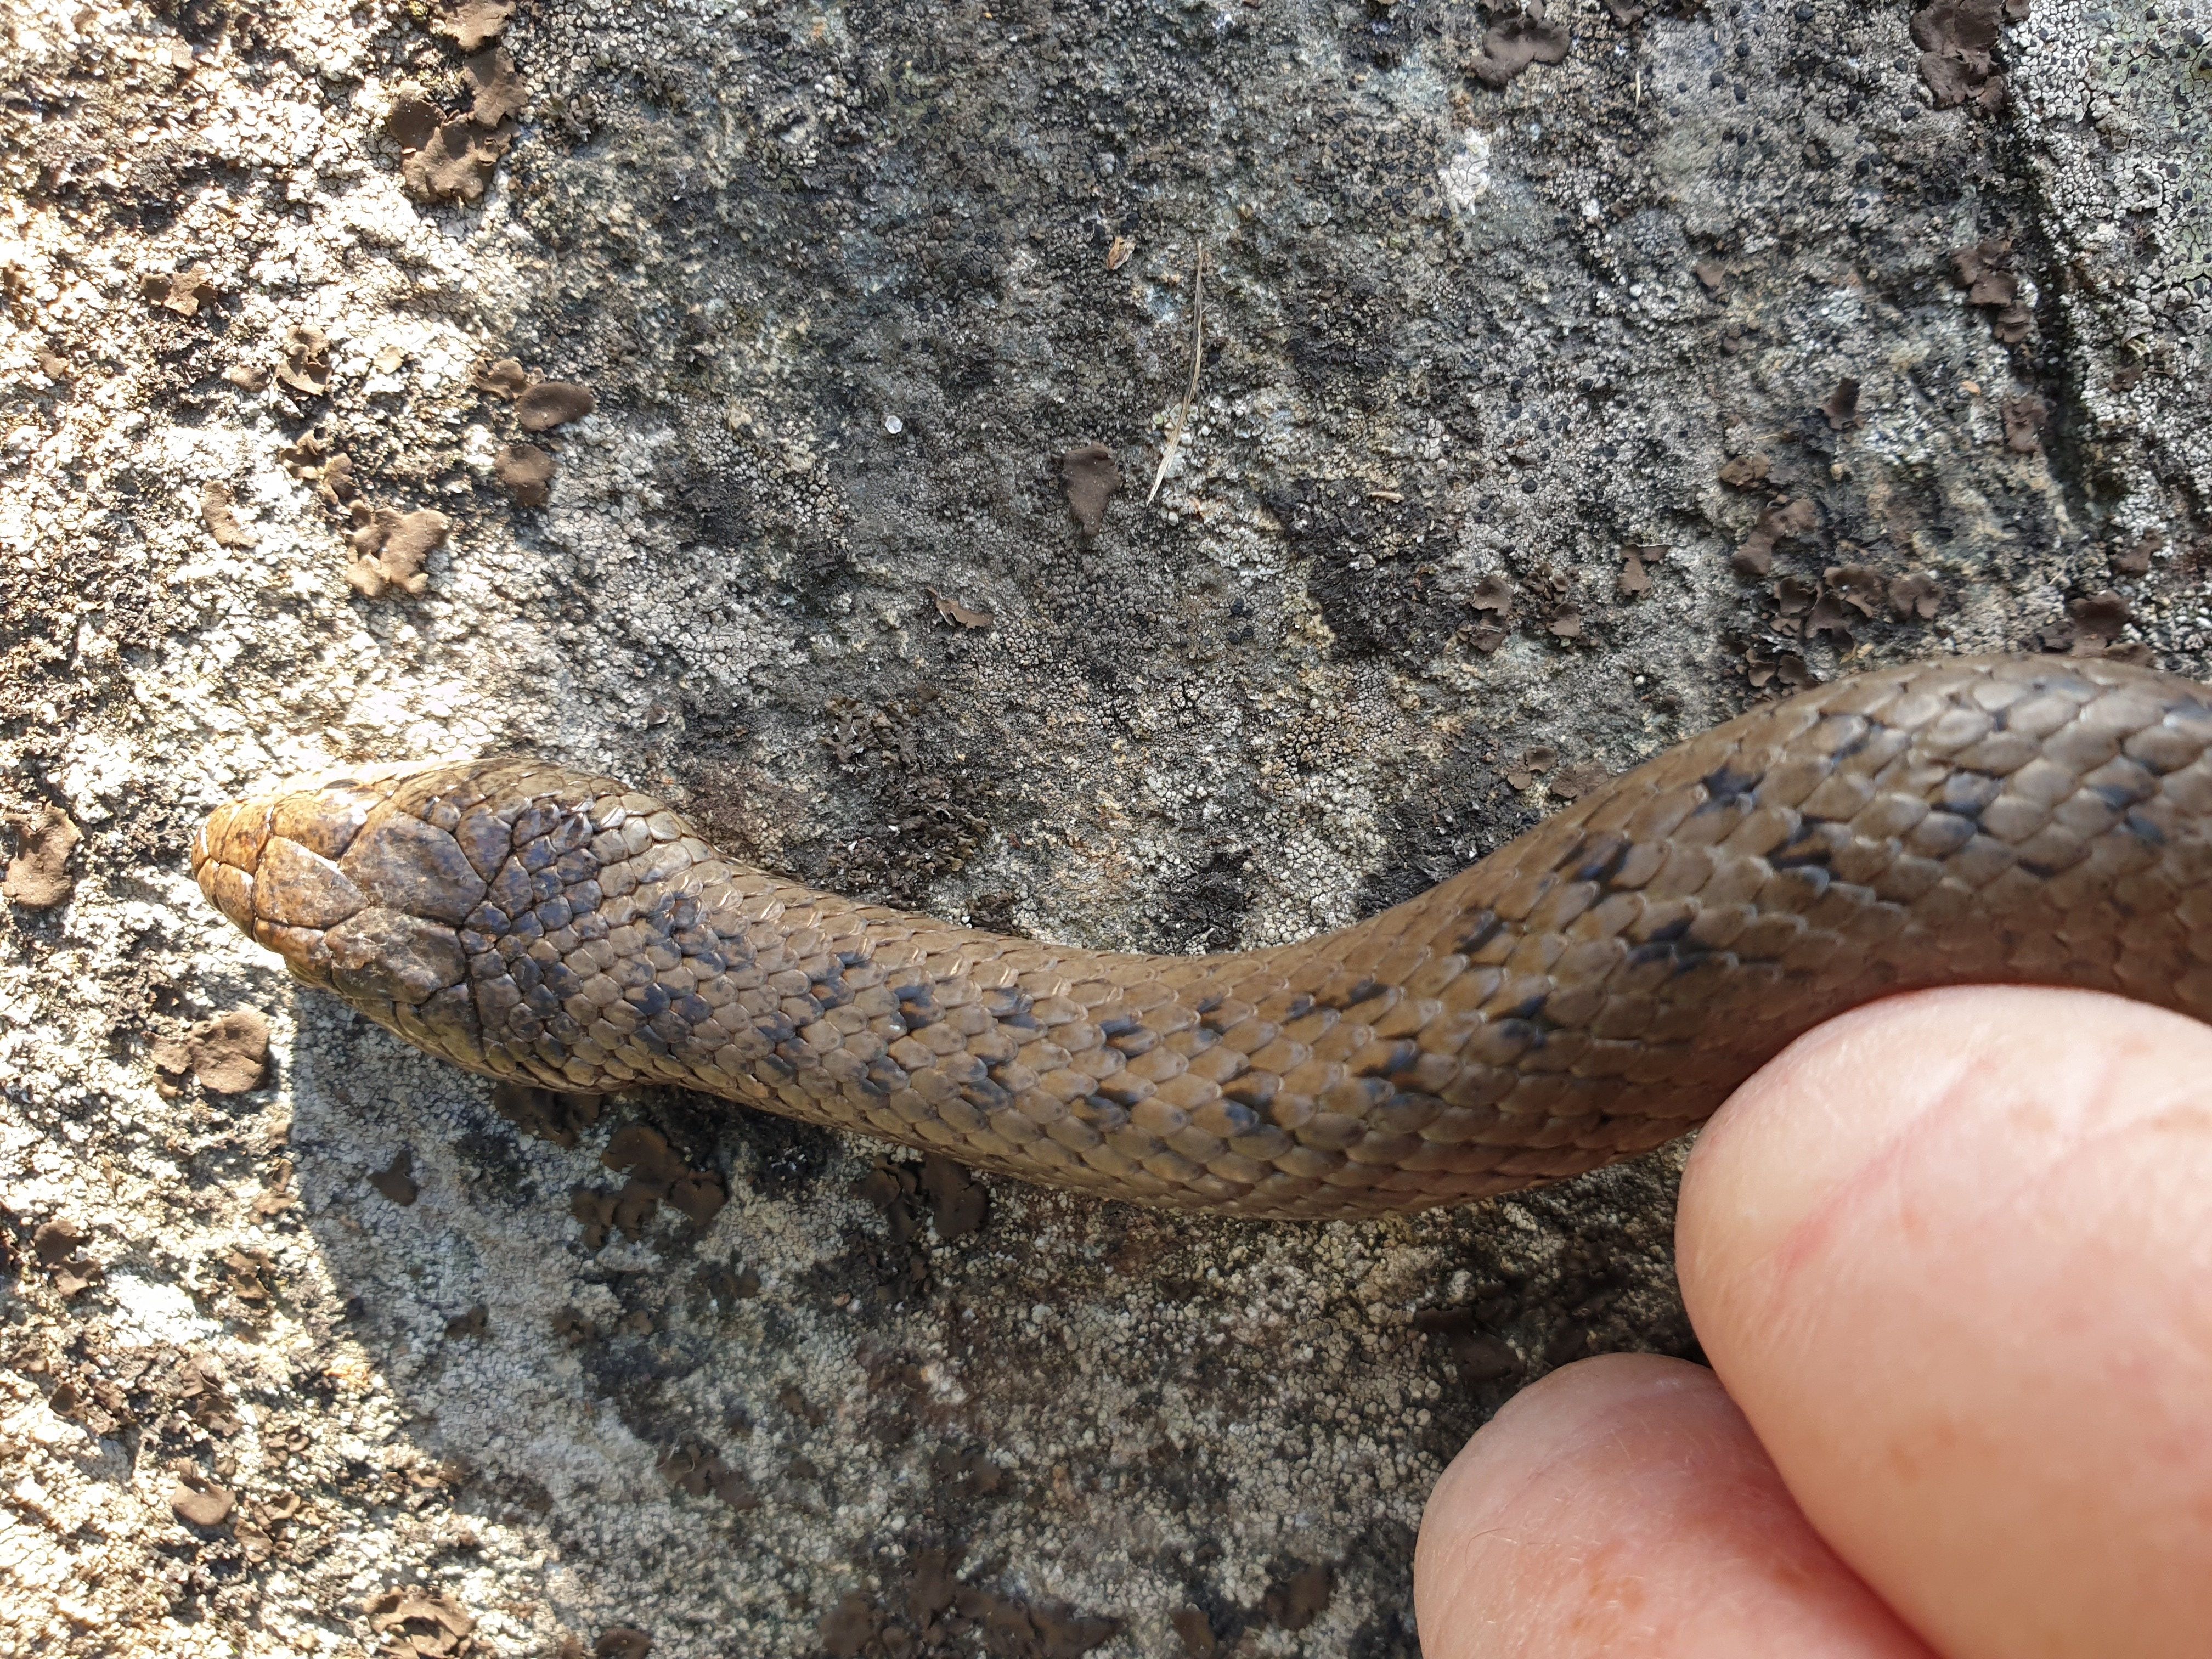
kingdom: Animalia
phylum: Chordata
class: Squamata
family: Colubridae
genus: Coronella
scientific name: Coronella austriaca
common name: Smooth snake
